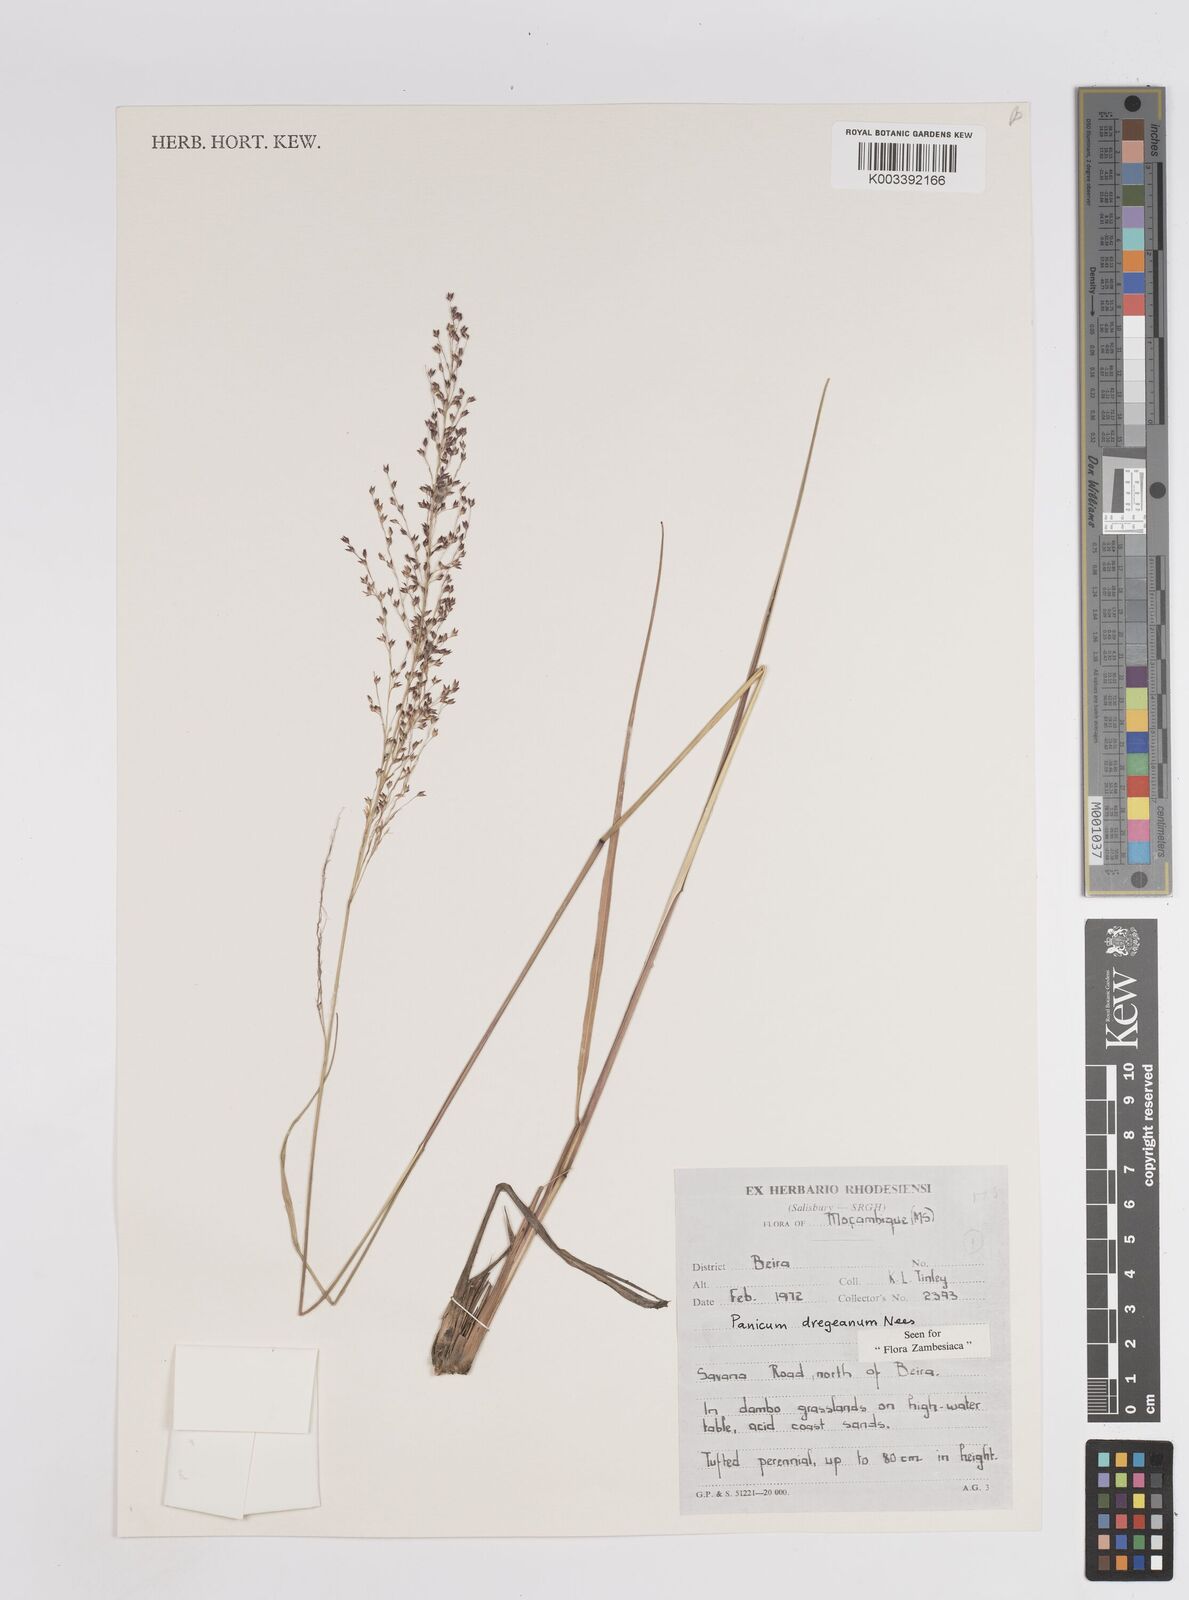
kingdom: Plantae
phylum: Tracheophyta
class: Liliopsida
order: Poales
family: Poaceae
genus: Panicum
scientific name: Panicum dregeanum
